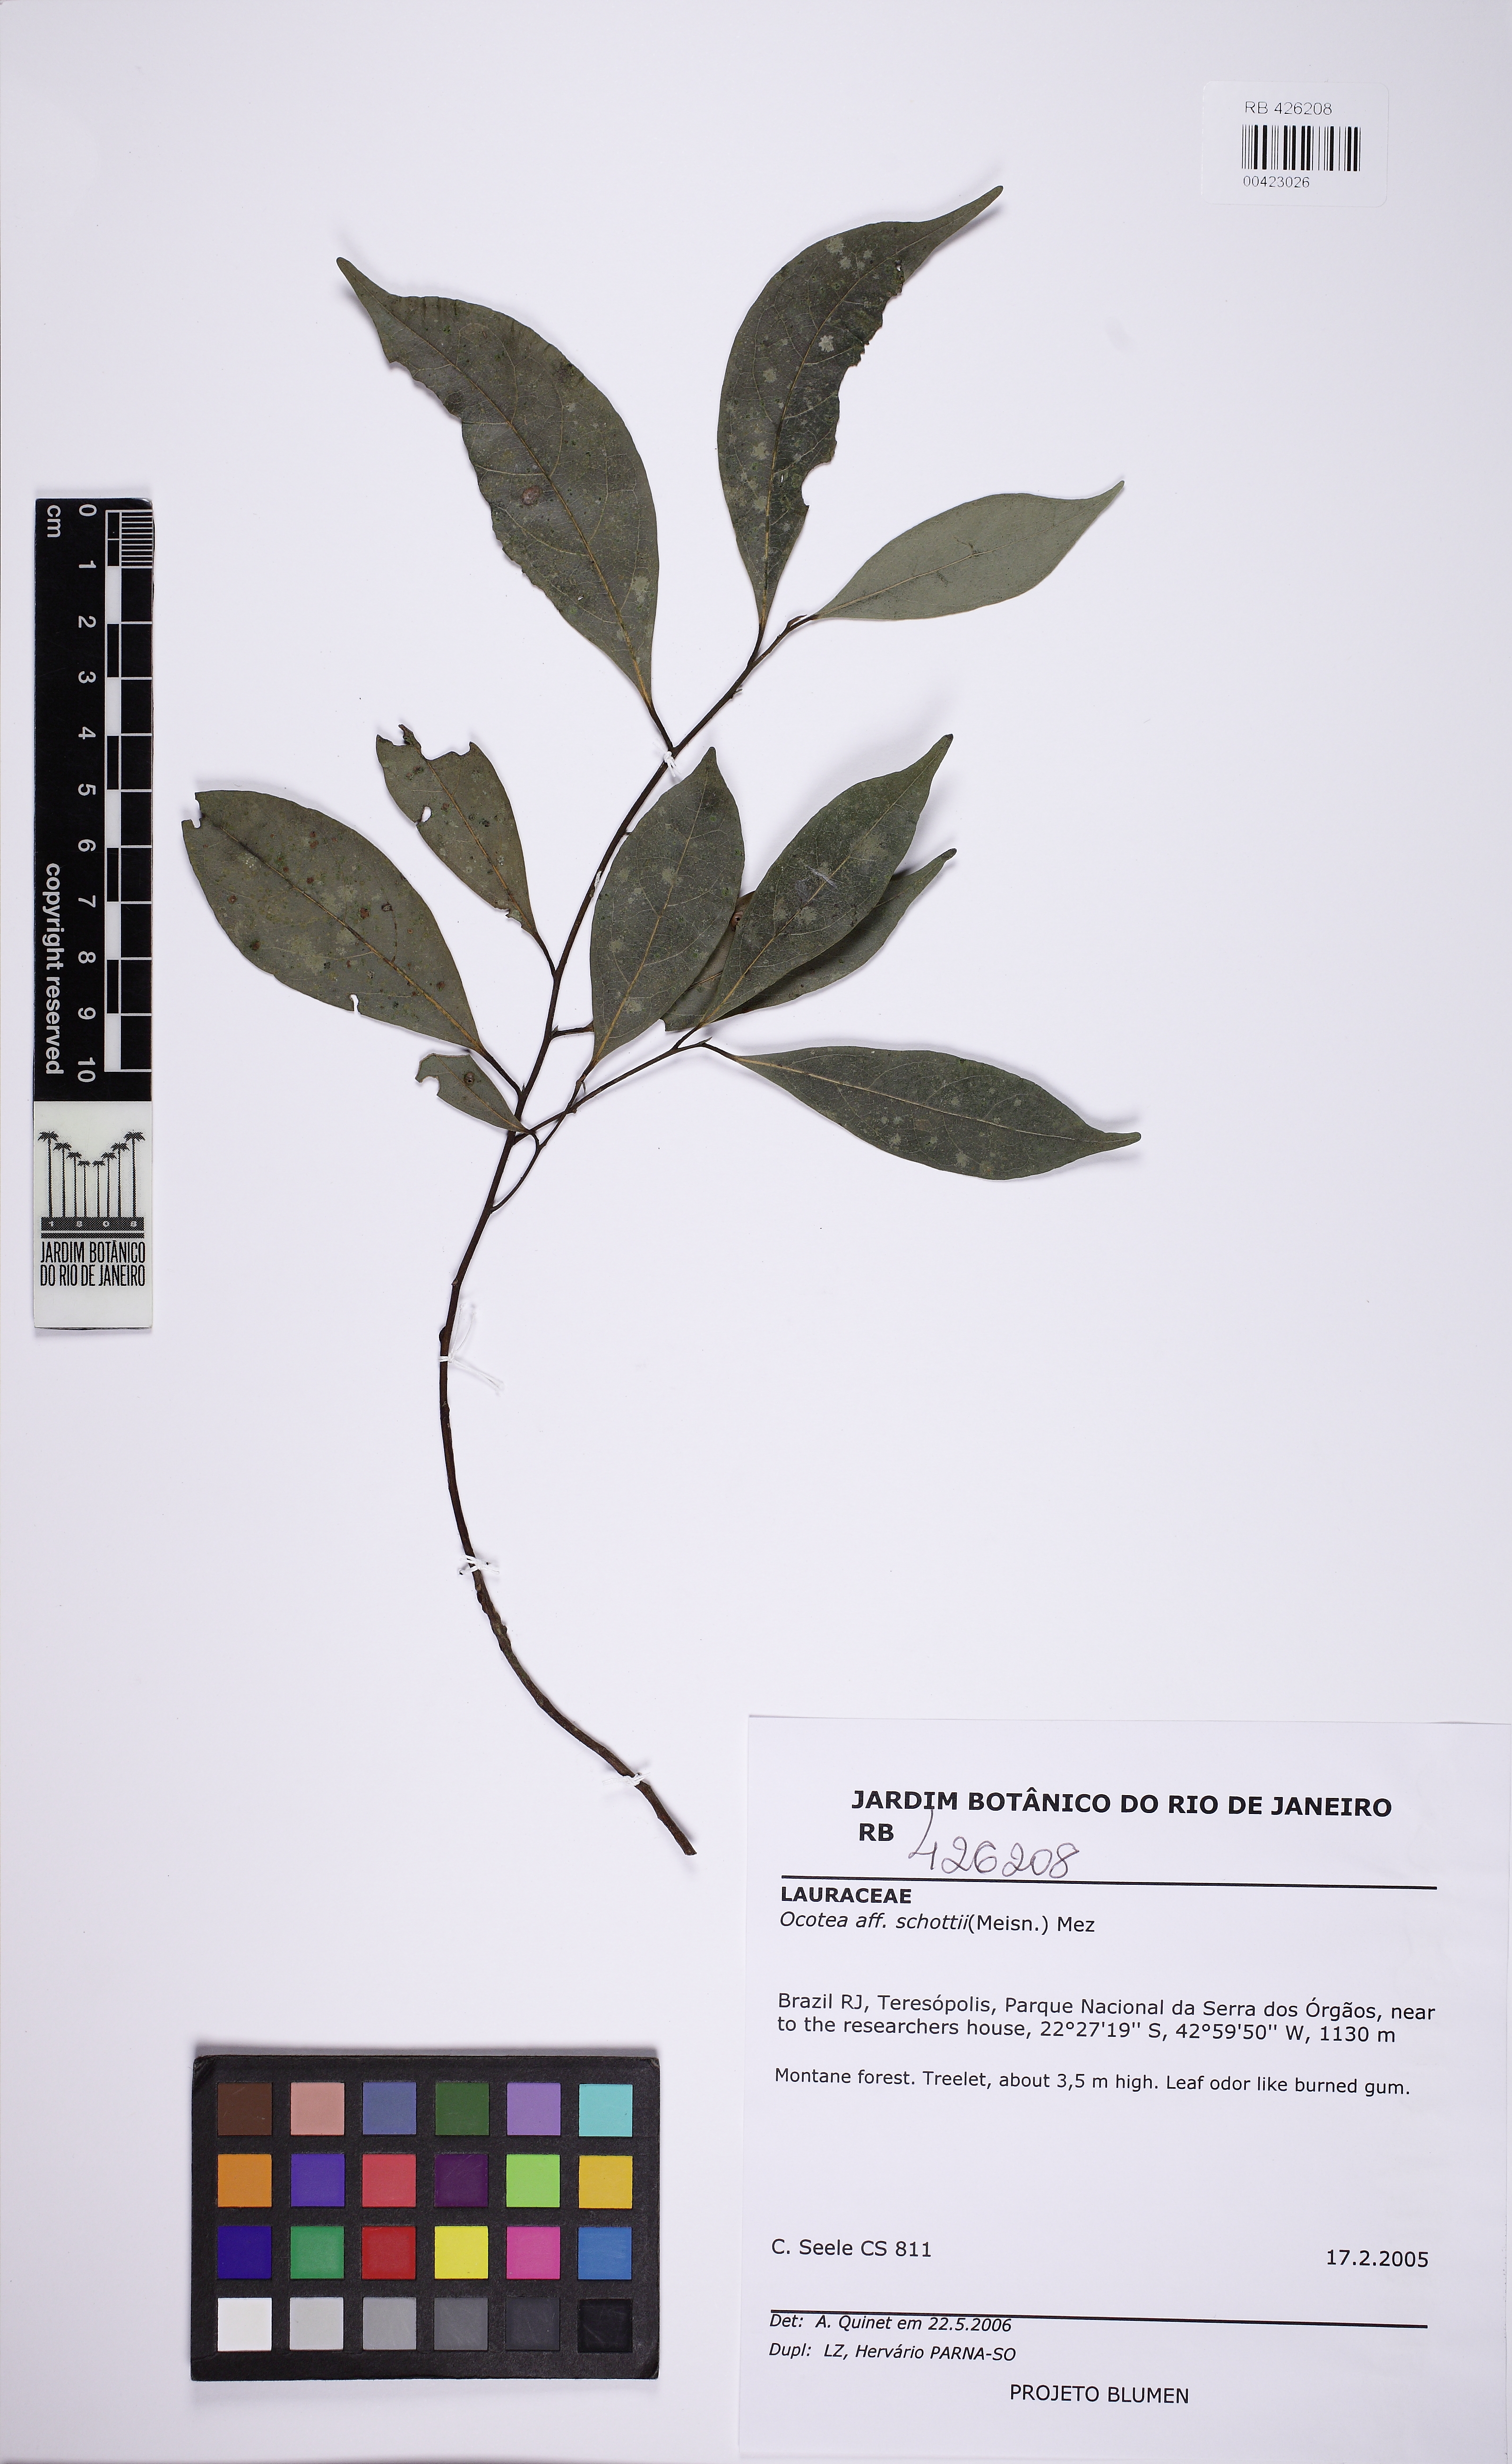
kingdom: Plantae
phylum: Tracheophyta
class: Magnoliopsida
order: Laurales
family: Lauraceae
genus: Ocotea
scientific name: Ocotea lancifolia
